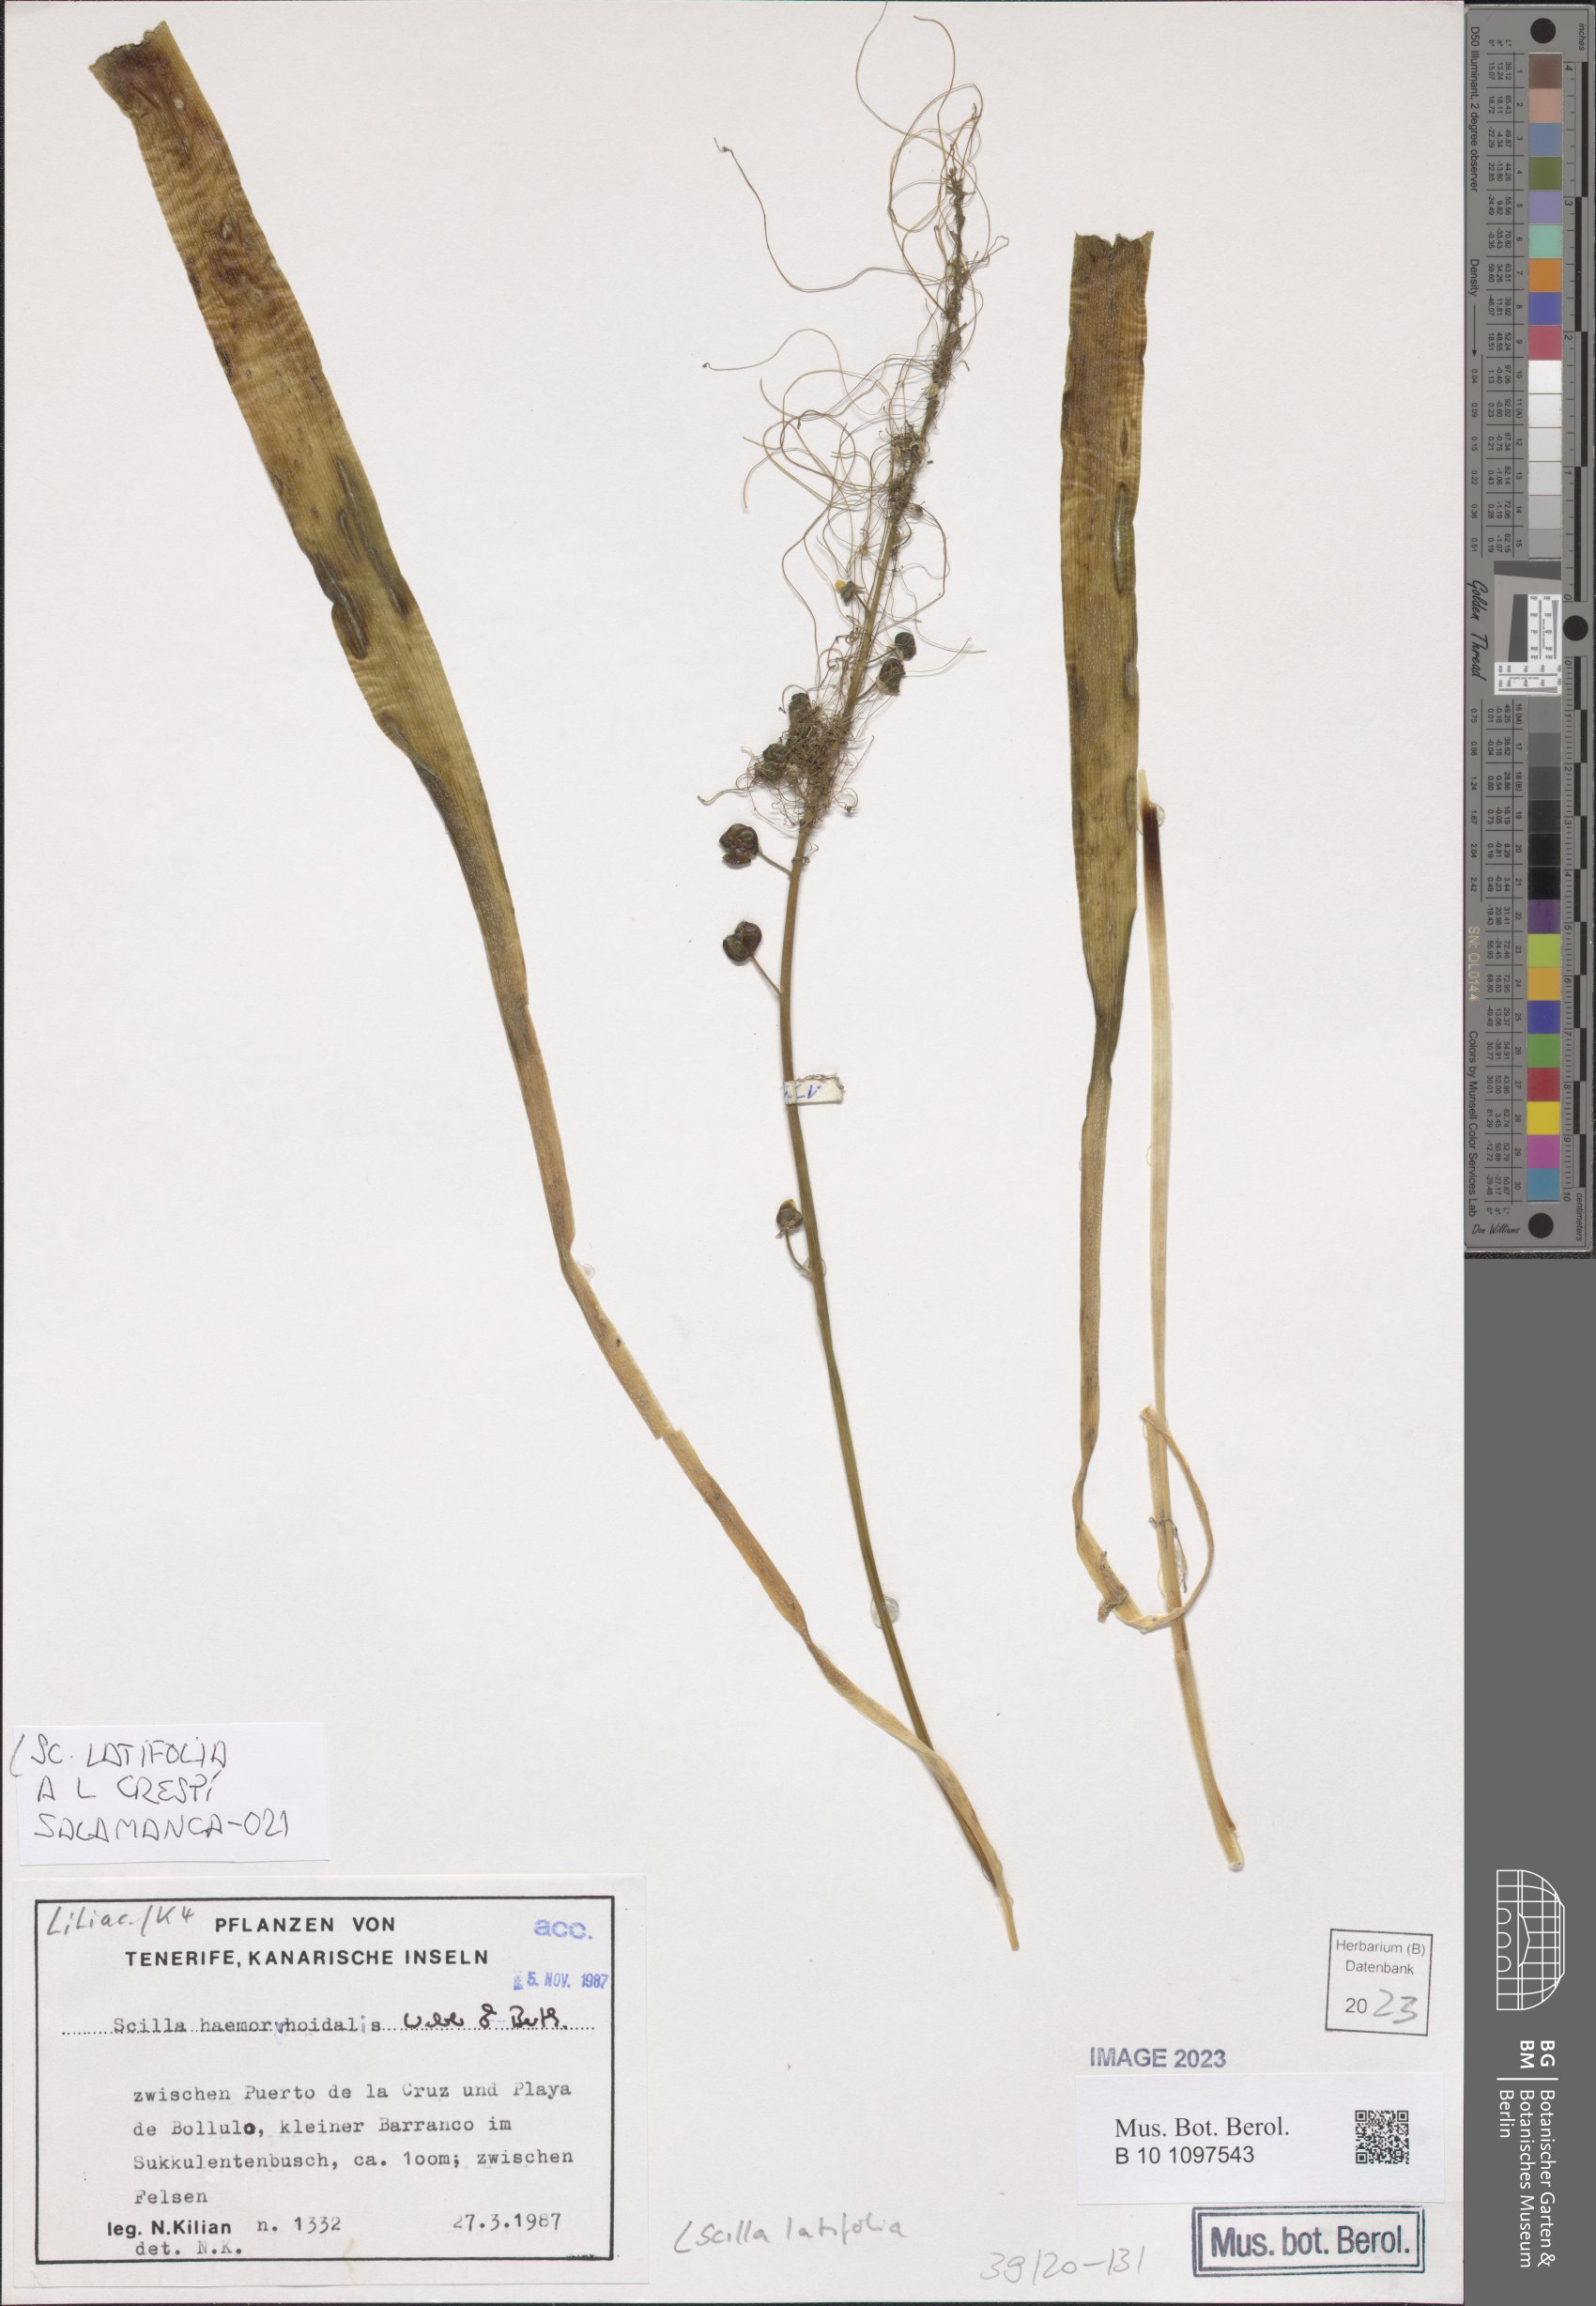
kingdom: Plantae
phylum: Tracheophyta
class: Liliopsida
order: Asparagales
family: Asparagaceae
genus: Scilla
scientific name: Scilla latifolia
